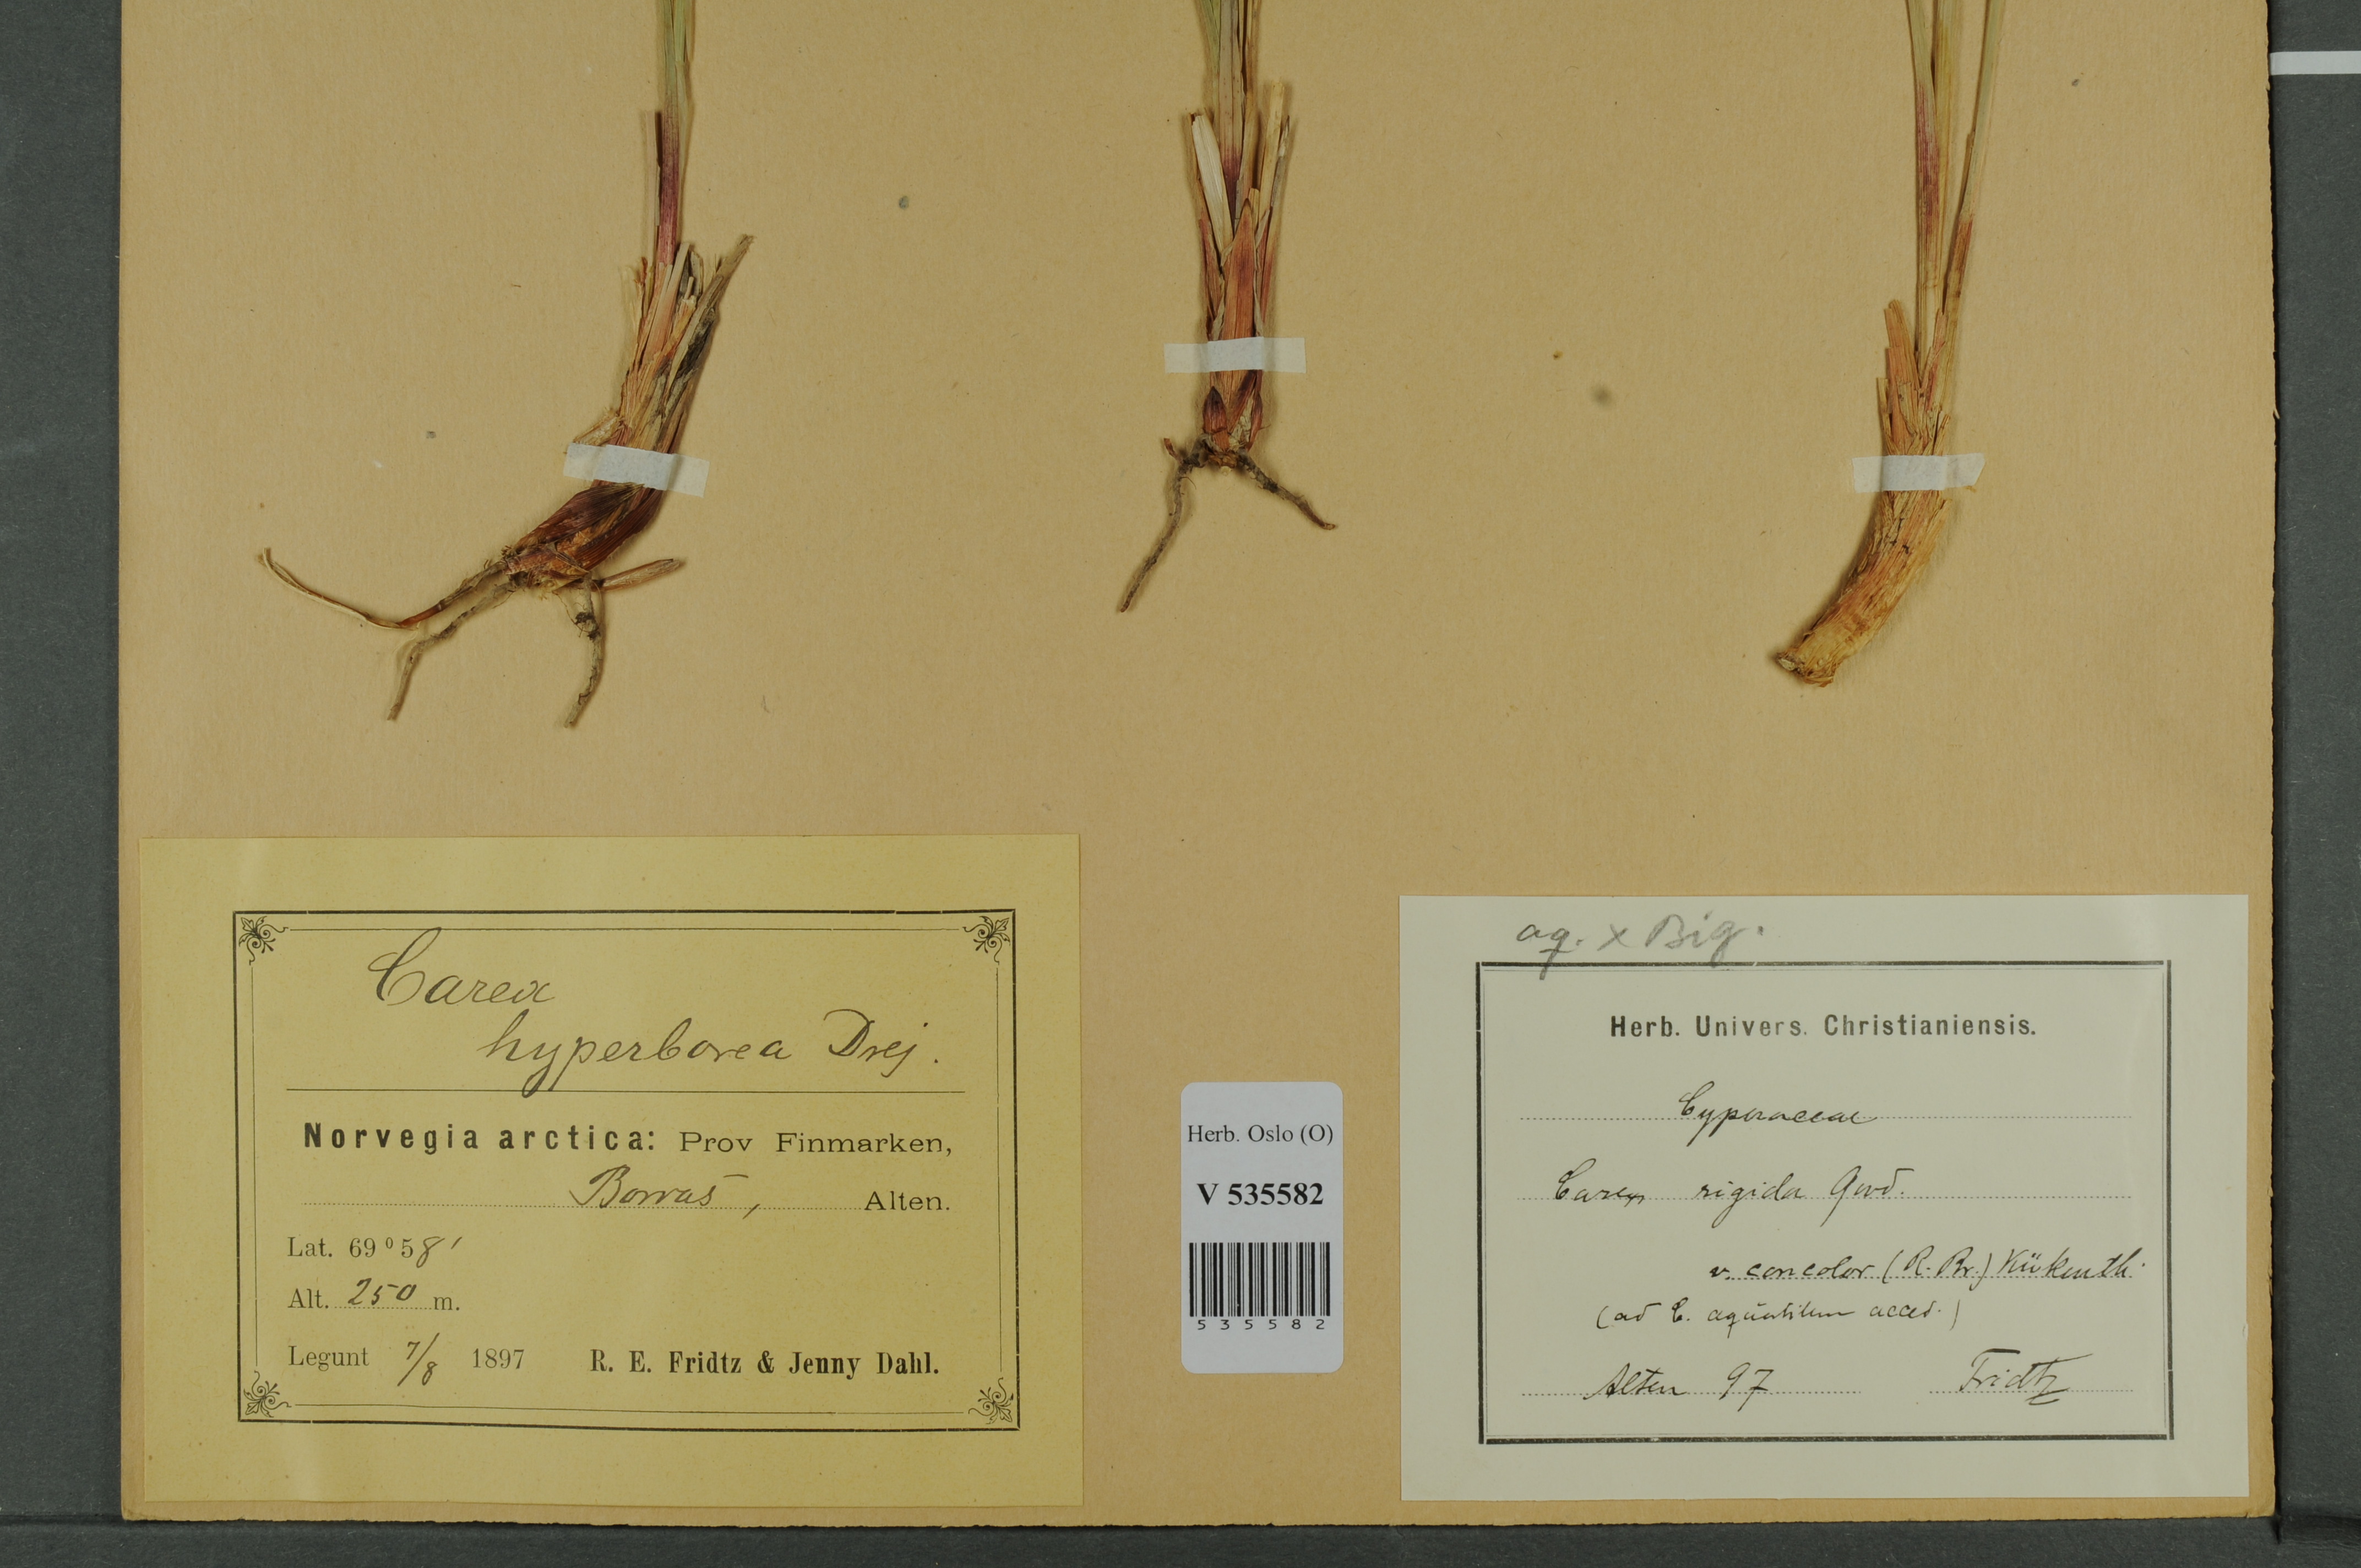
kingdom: Plantae
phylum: Tracheophyta
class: Liliopsida
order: Poales
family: Cyperaceae
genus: Carex
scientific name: Carex
